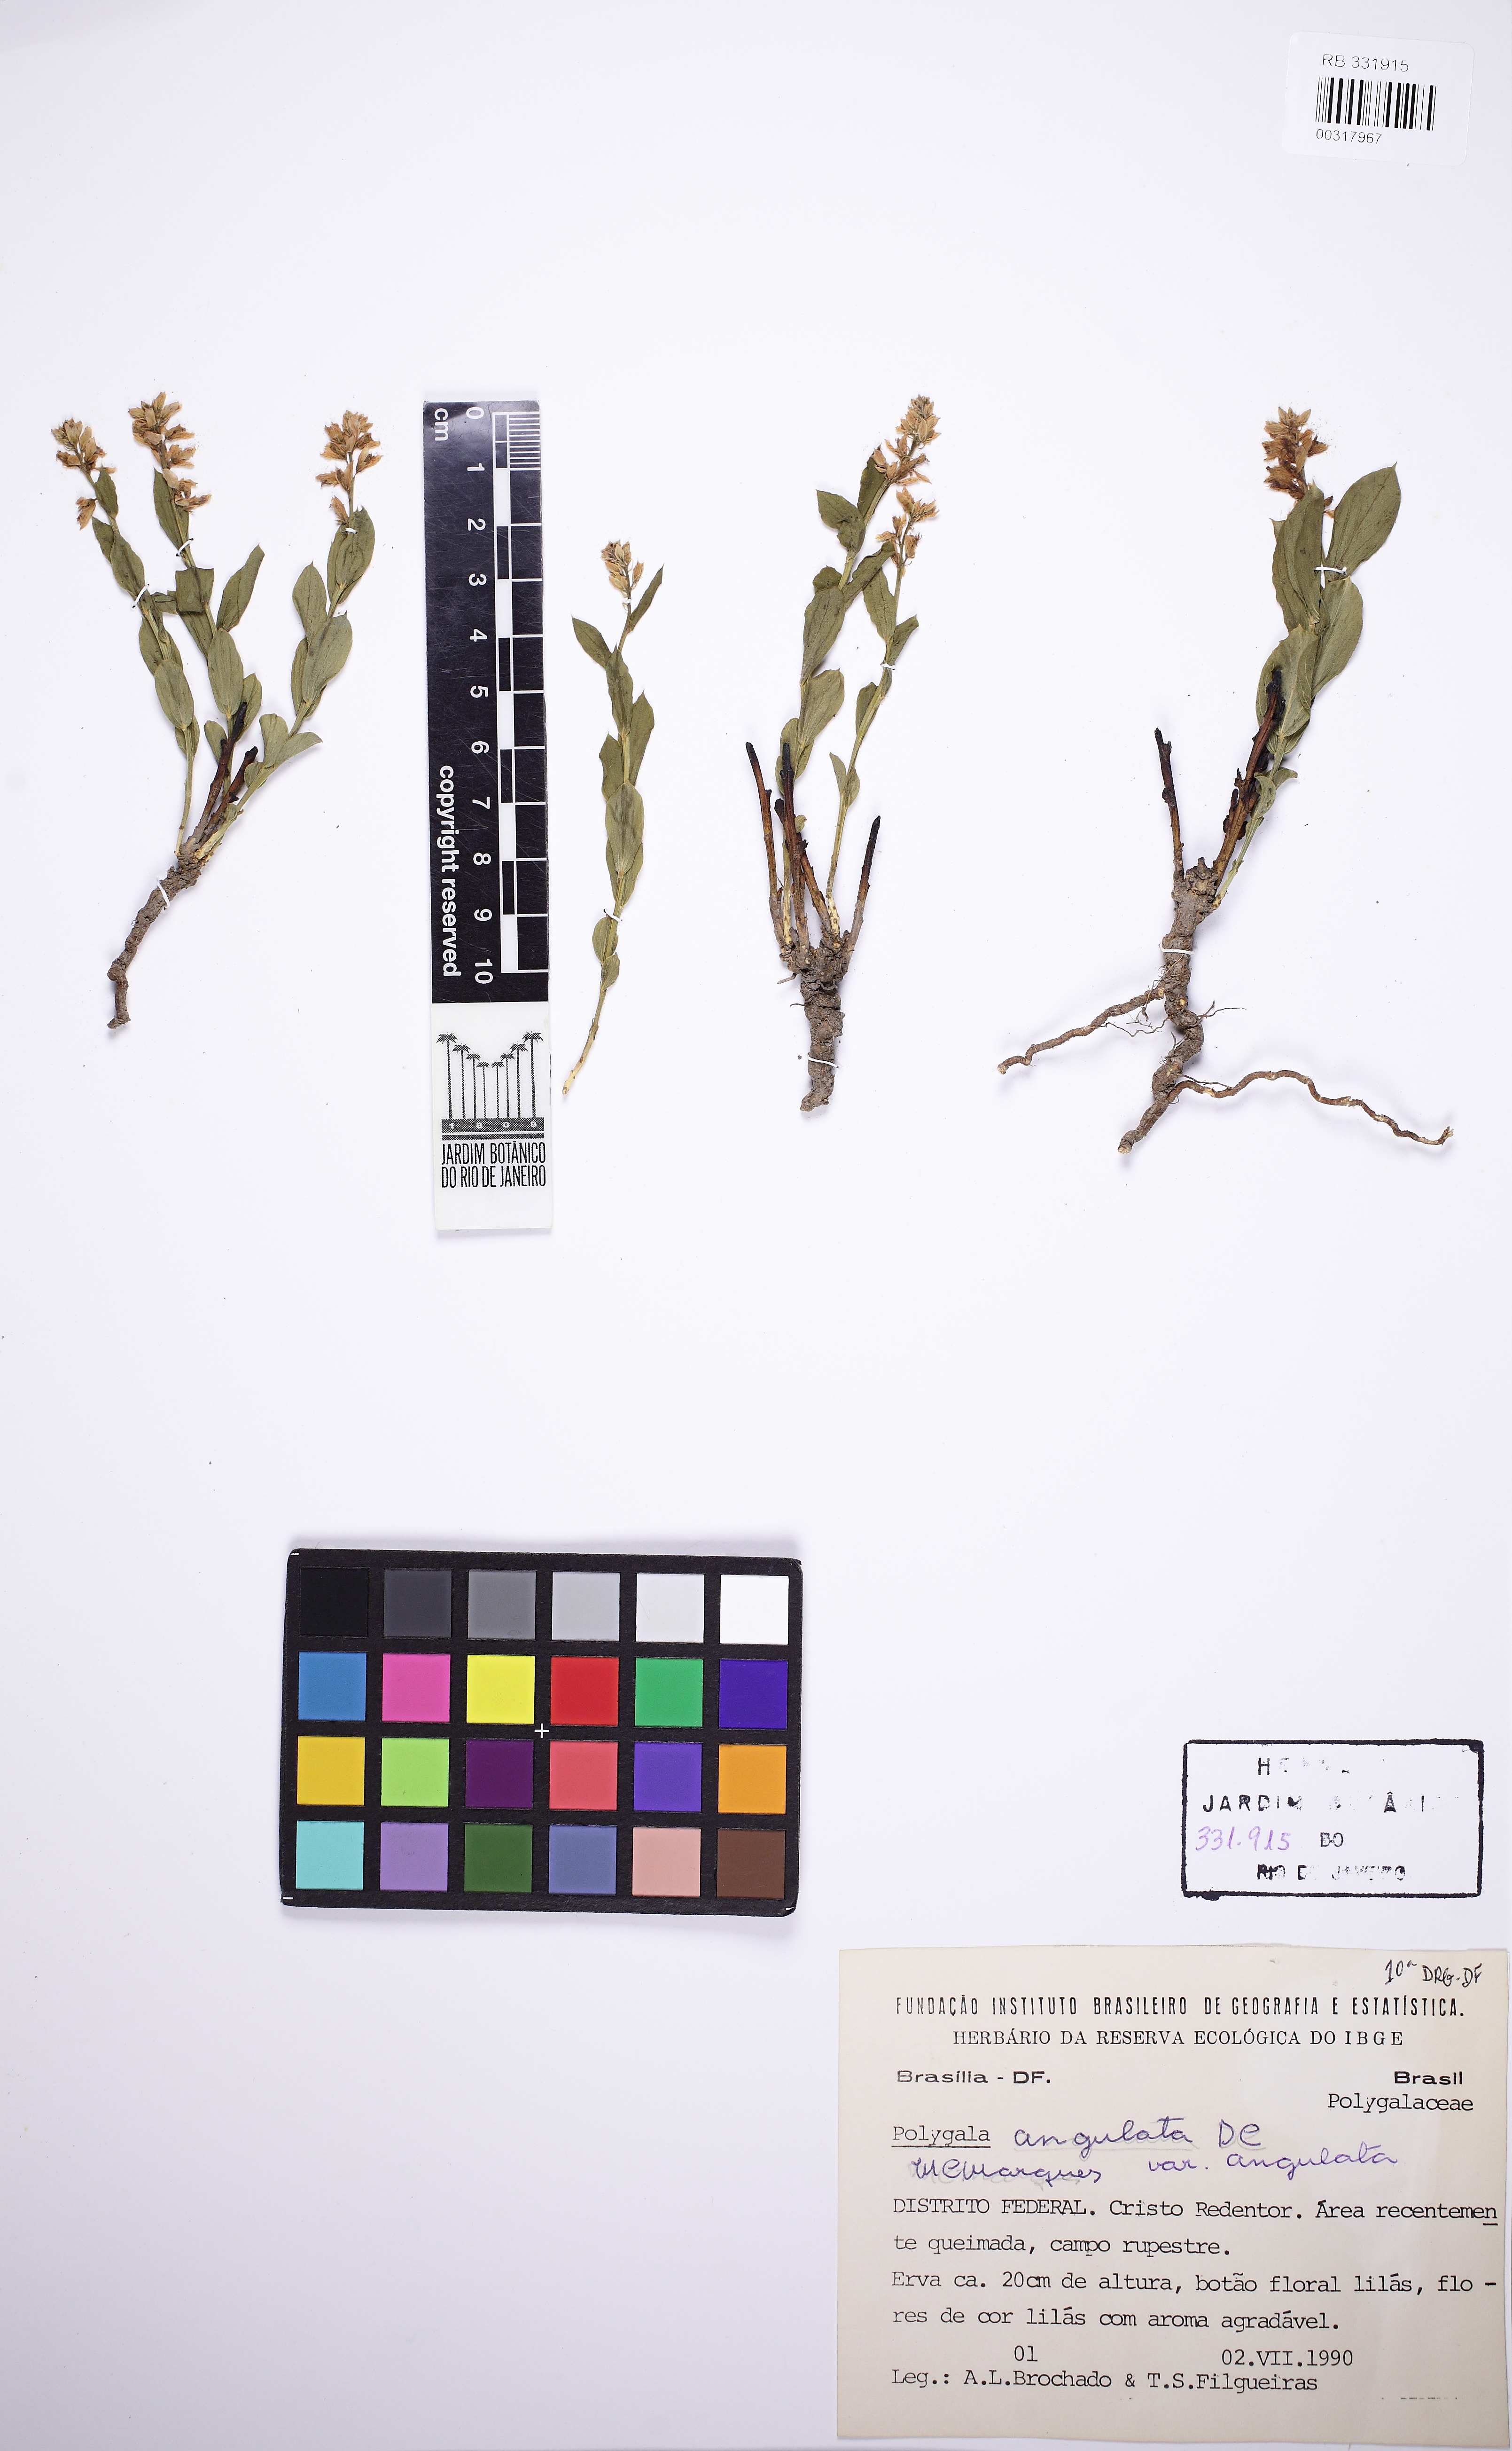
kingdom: Plantae
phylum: Tracheophyta
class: Magnoliopsida
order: Fabales
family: Polygalaceae
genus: Polygala
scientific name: Polygala poaya
